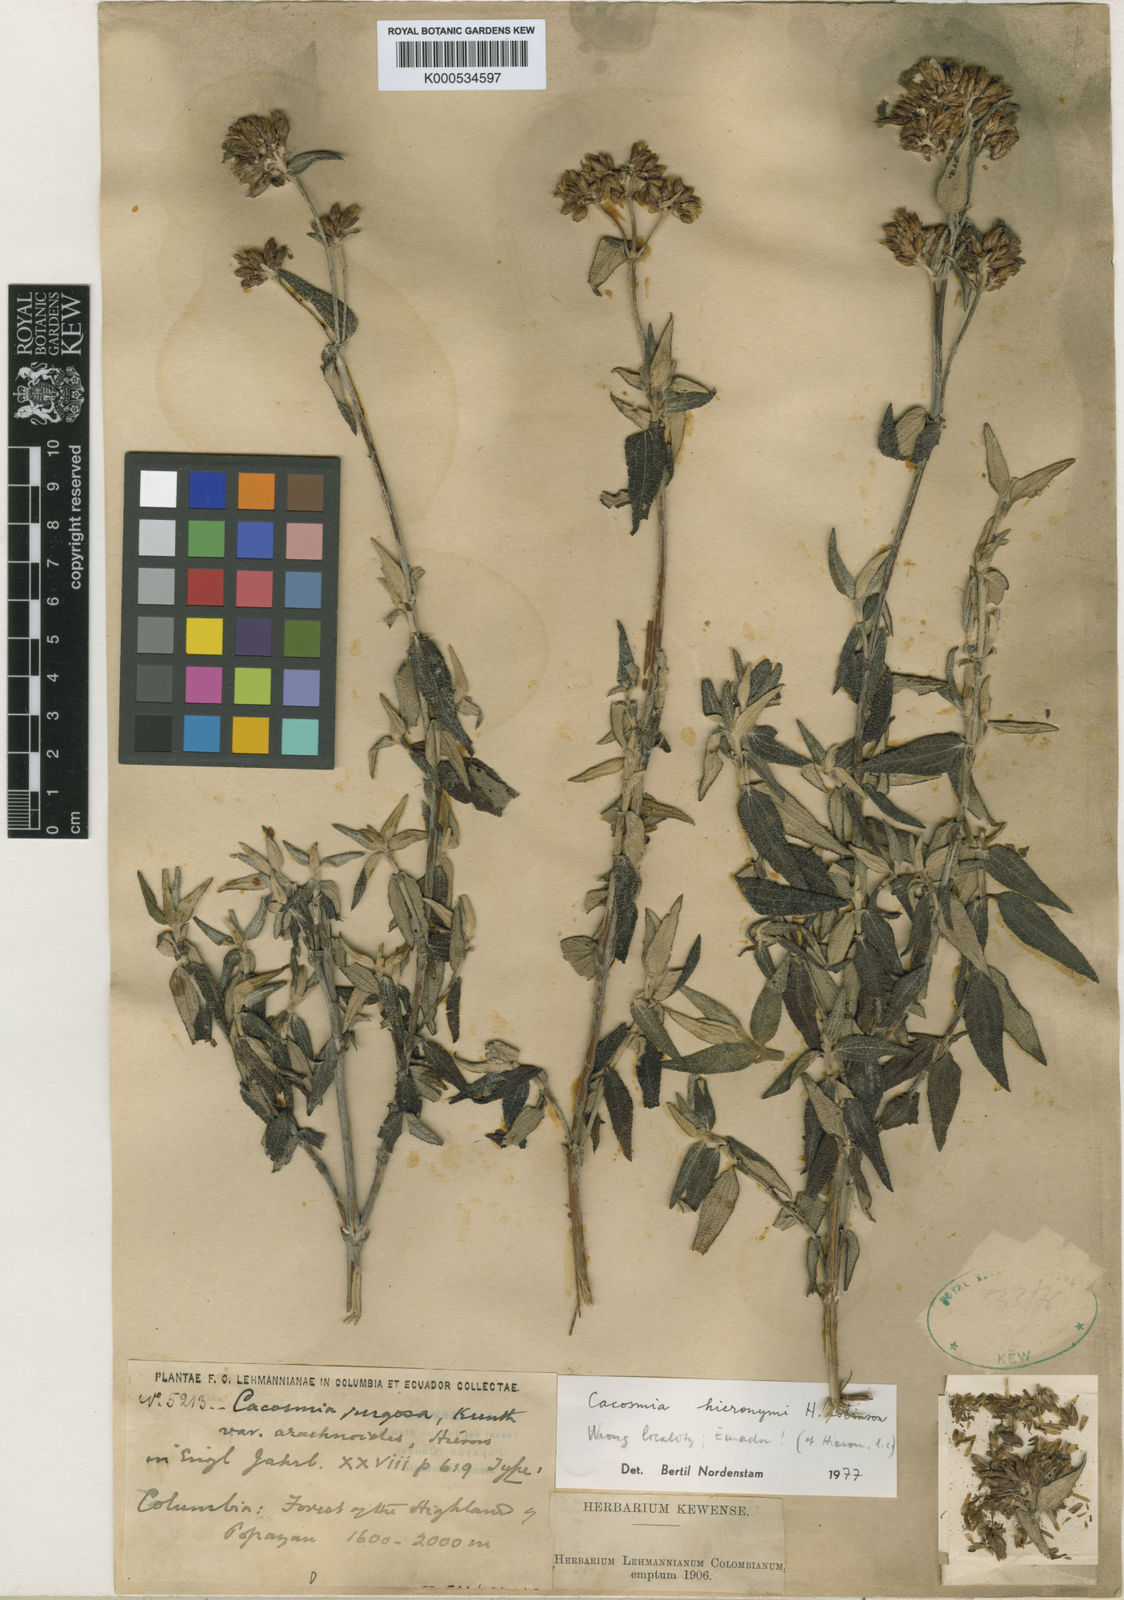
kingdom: Plantae
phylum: Tracheophyta
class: Magnoliopsida
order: Asterales
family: Asteraceae
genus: Cacosmia
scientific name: Cacosmia hieronymi
